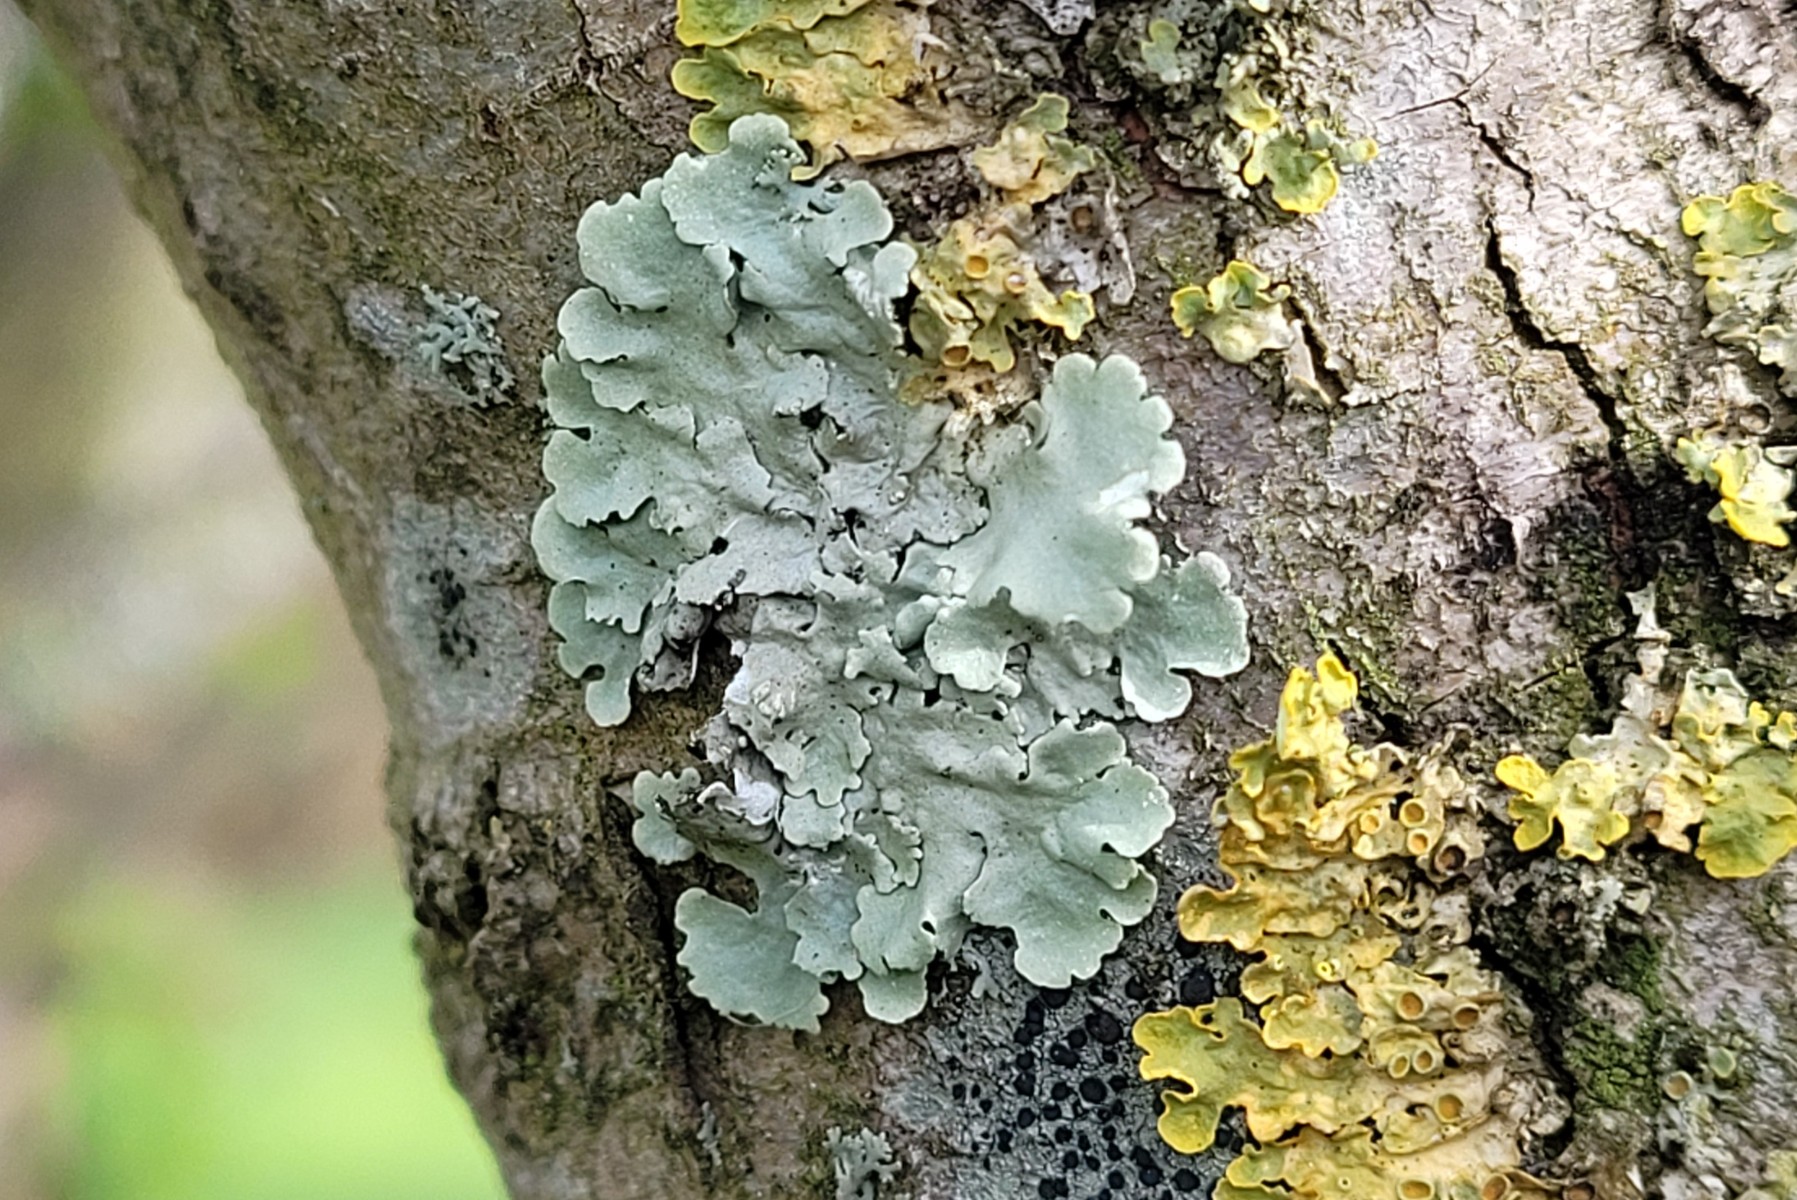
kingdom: Fungi
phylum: Ascomycota
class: Lecanoromycetes
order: Lecanorales
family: Parmeliaceae
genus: Flavoparmelia
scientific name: Flavoparmelia caperata
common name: gulgrøn skållav
